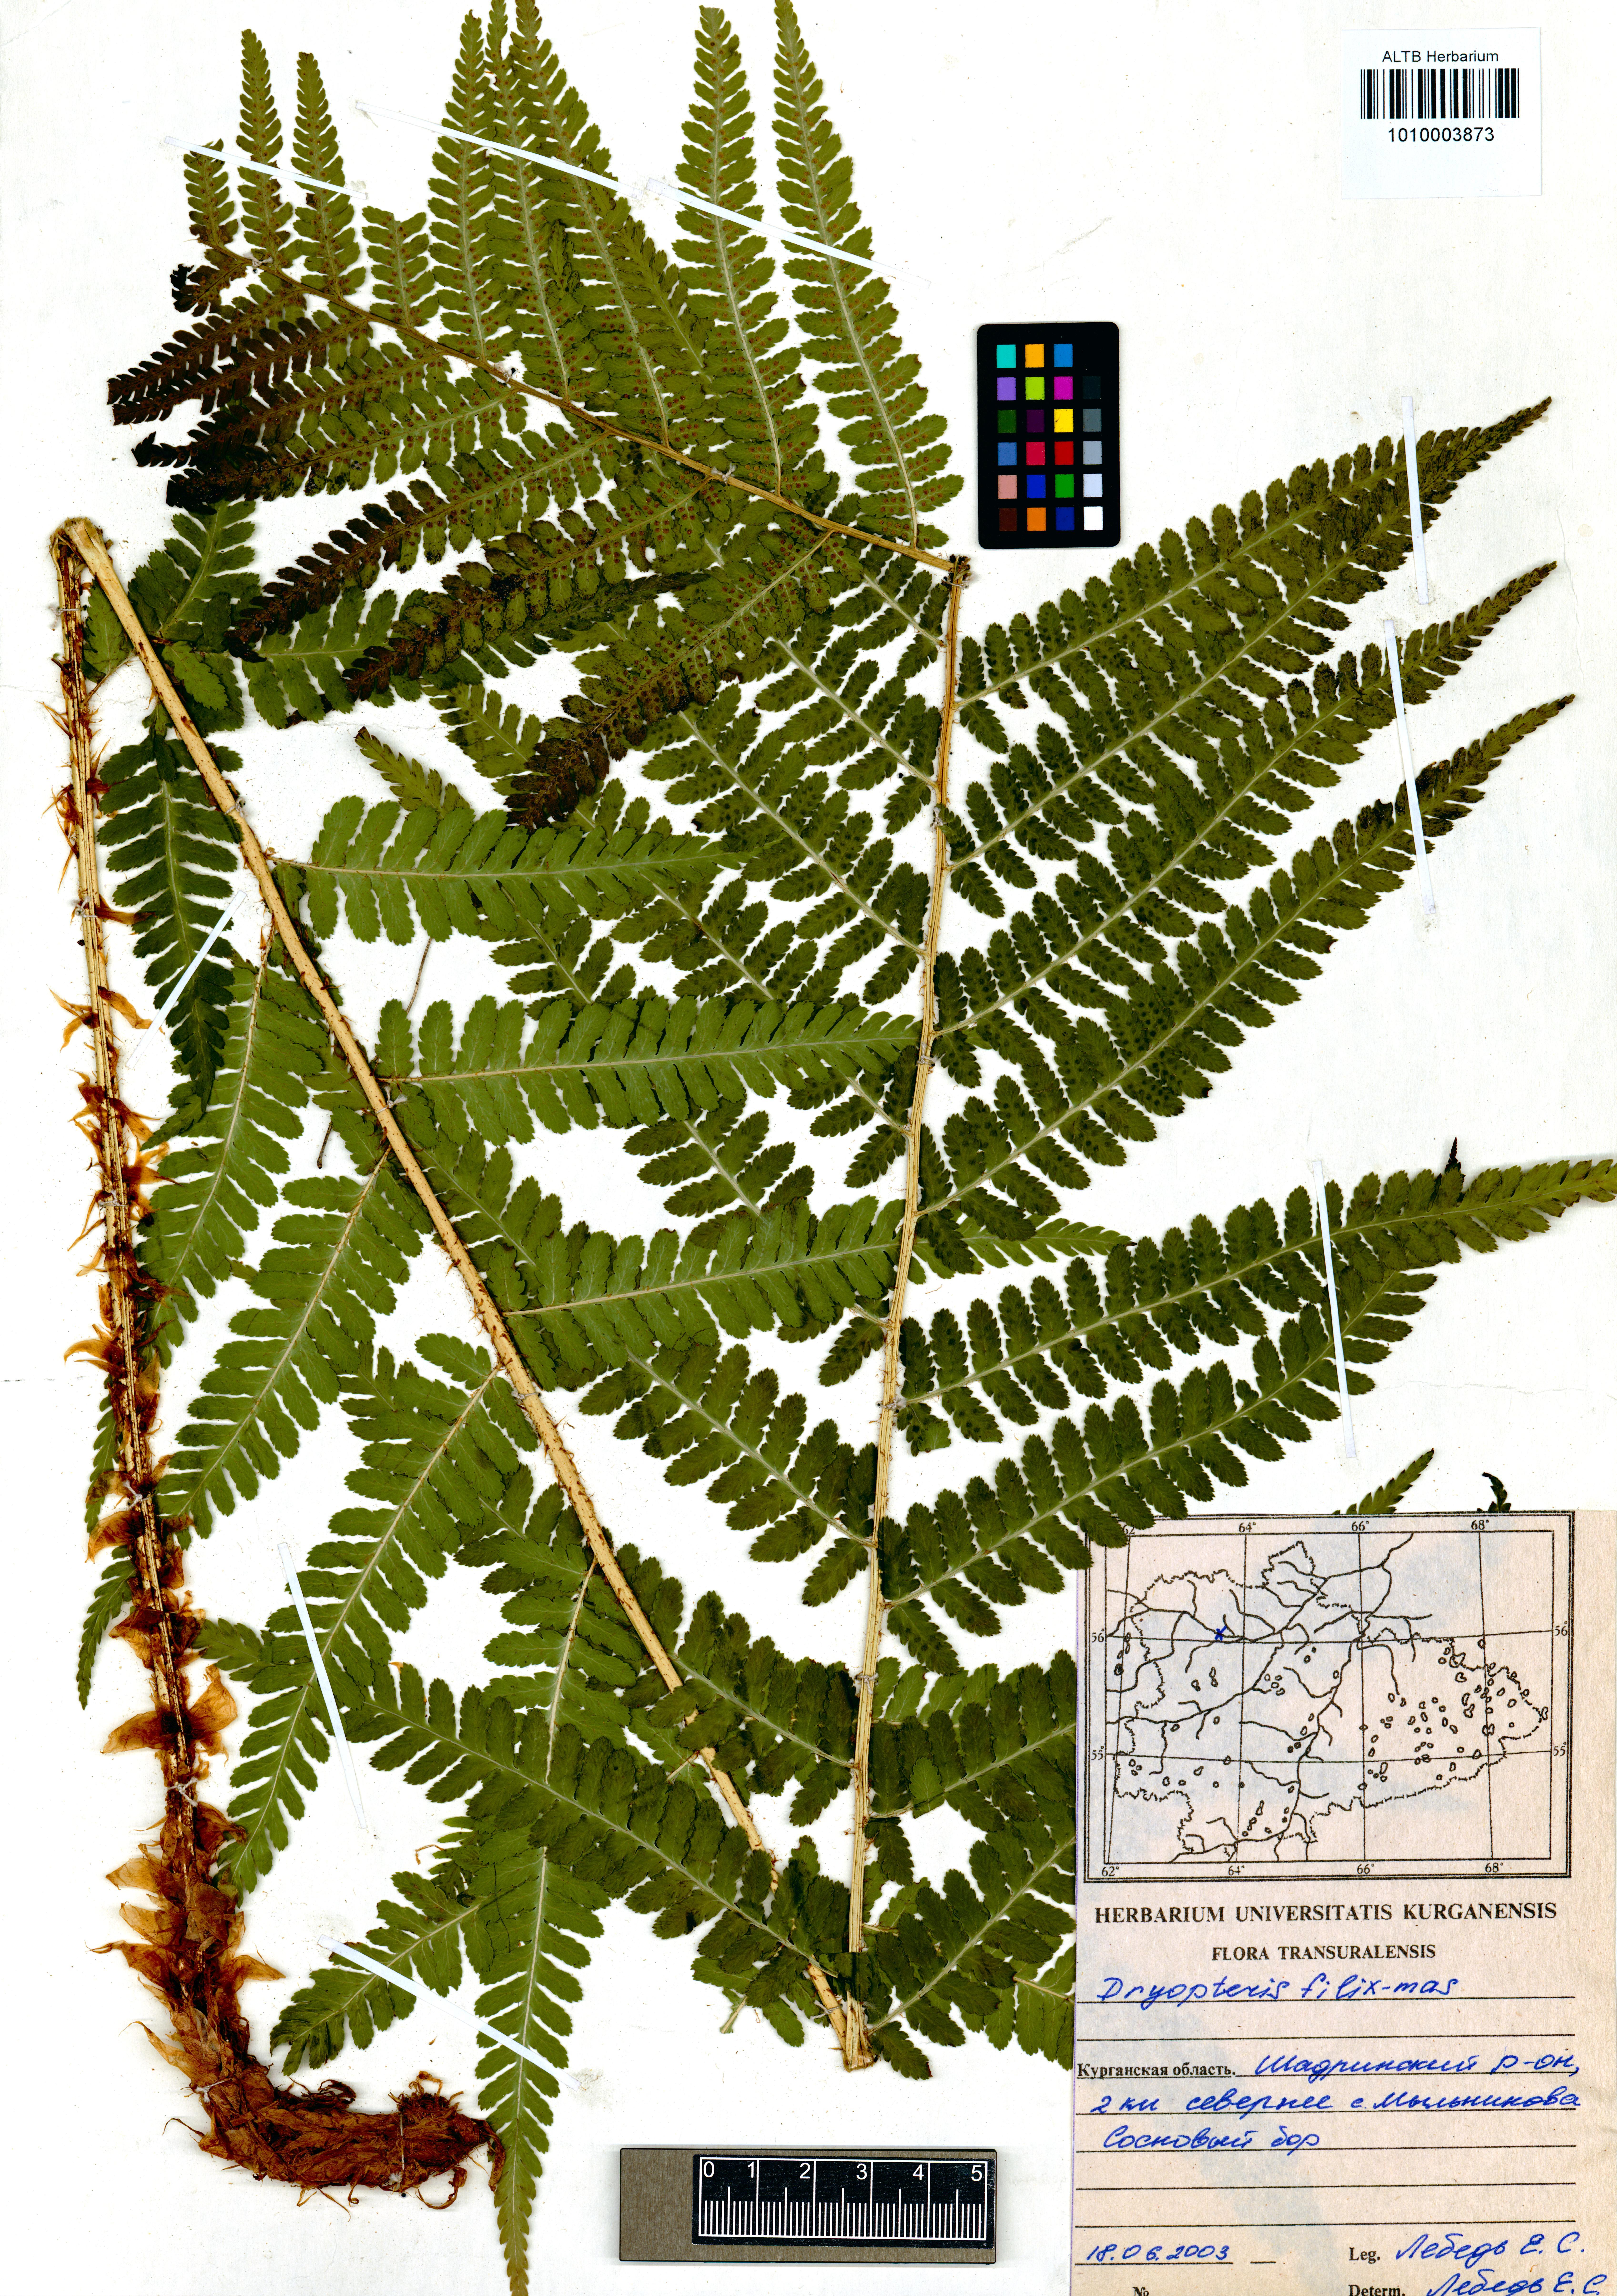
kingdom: Plantae
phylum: Tracheophyta
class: Polypodiopsida
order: Polypodiales
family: Dryopteridaceae
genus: Dryopteris
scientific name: Dryopteris filix-mas
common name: Male fern
